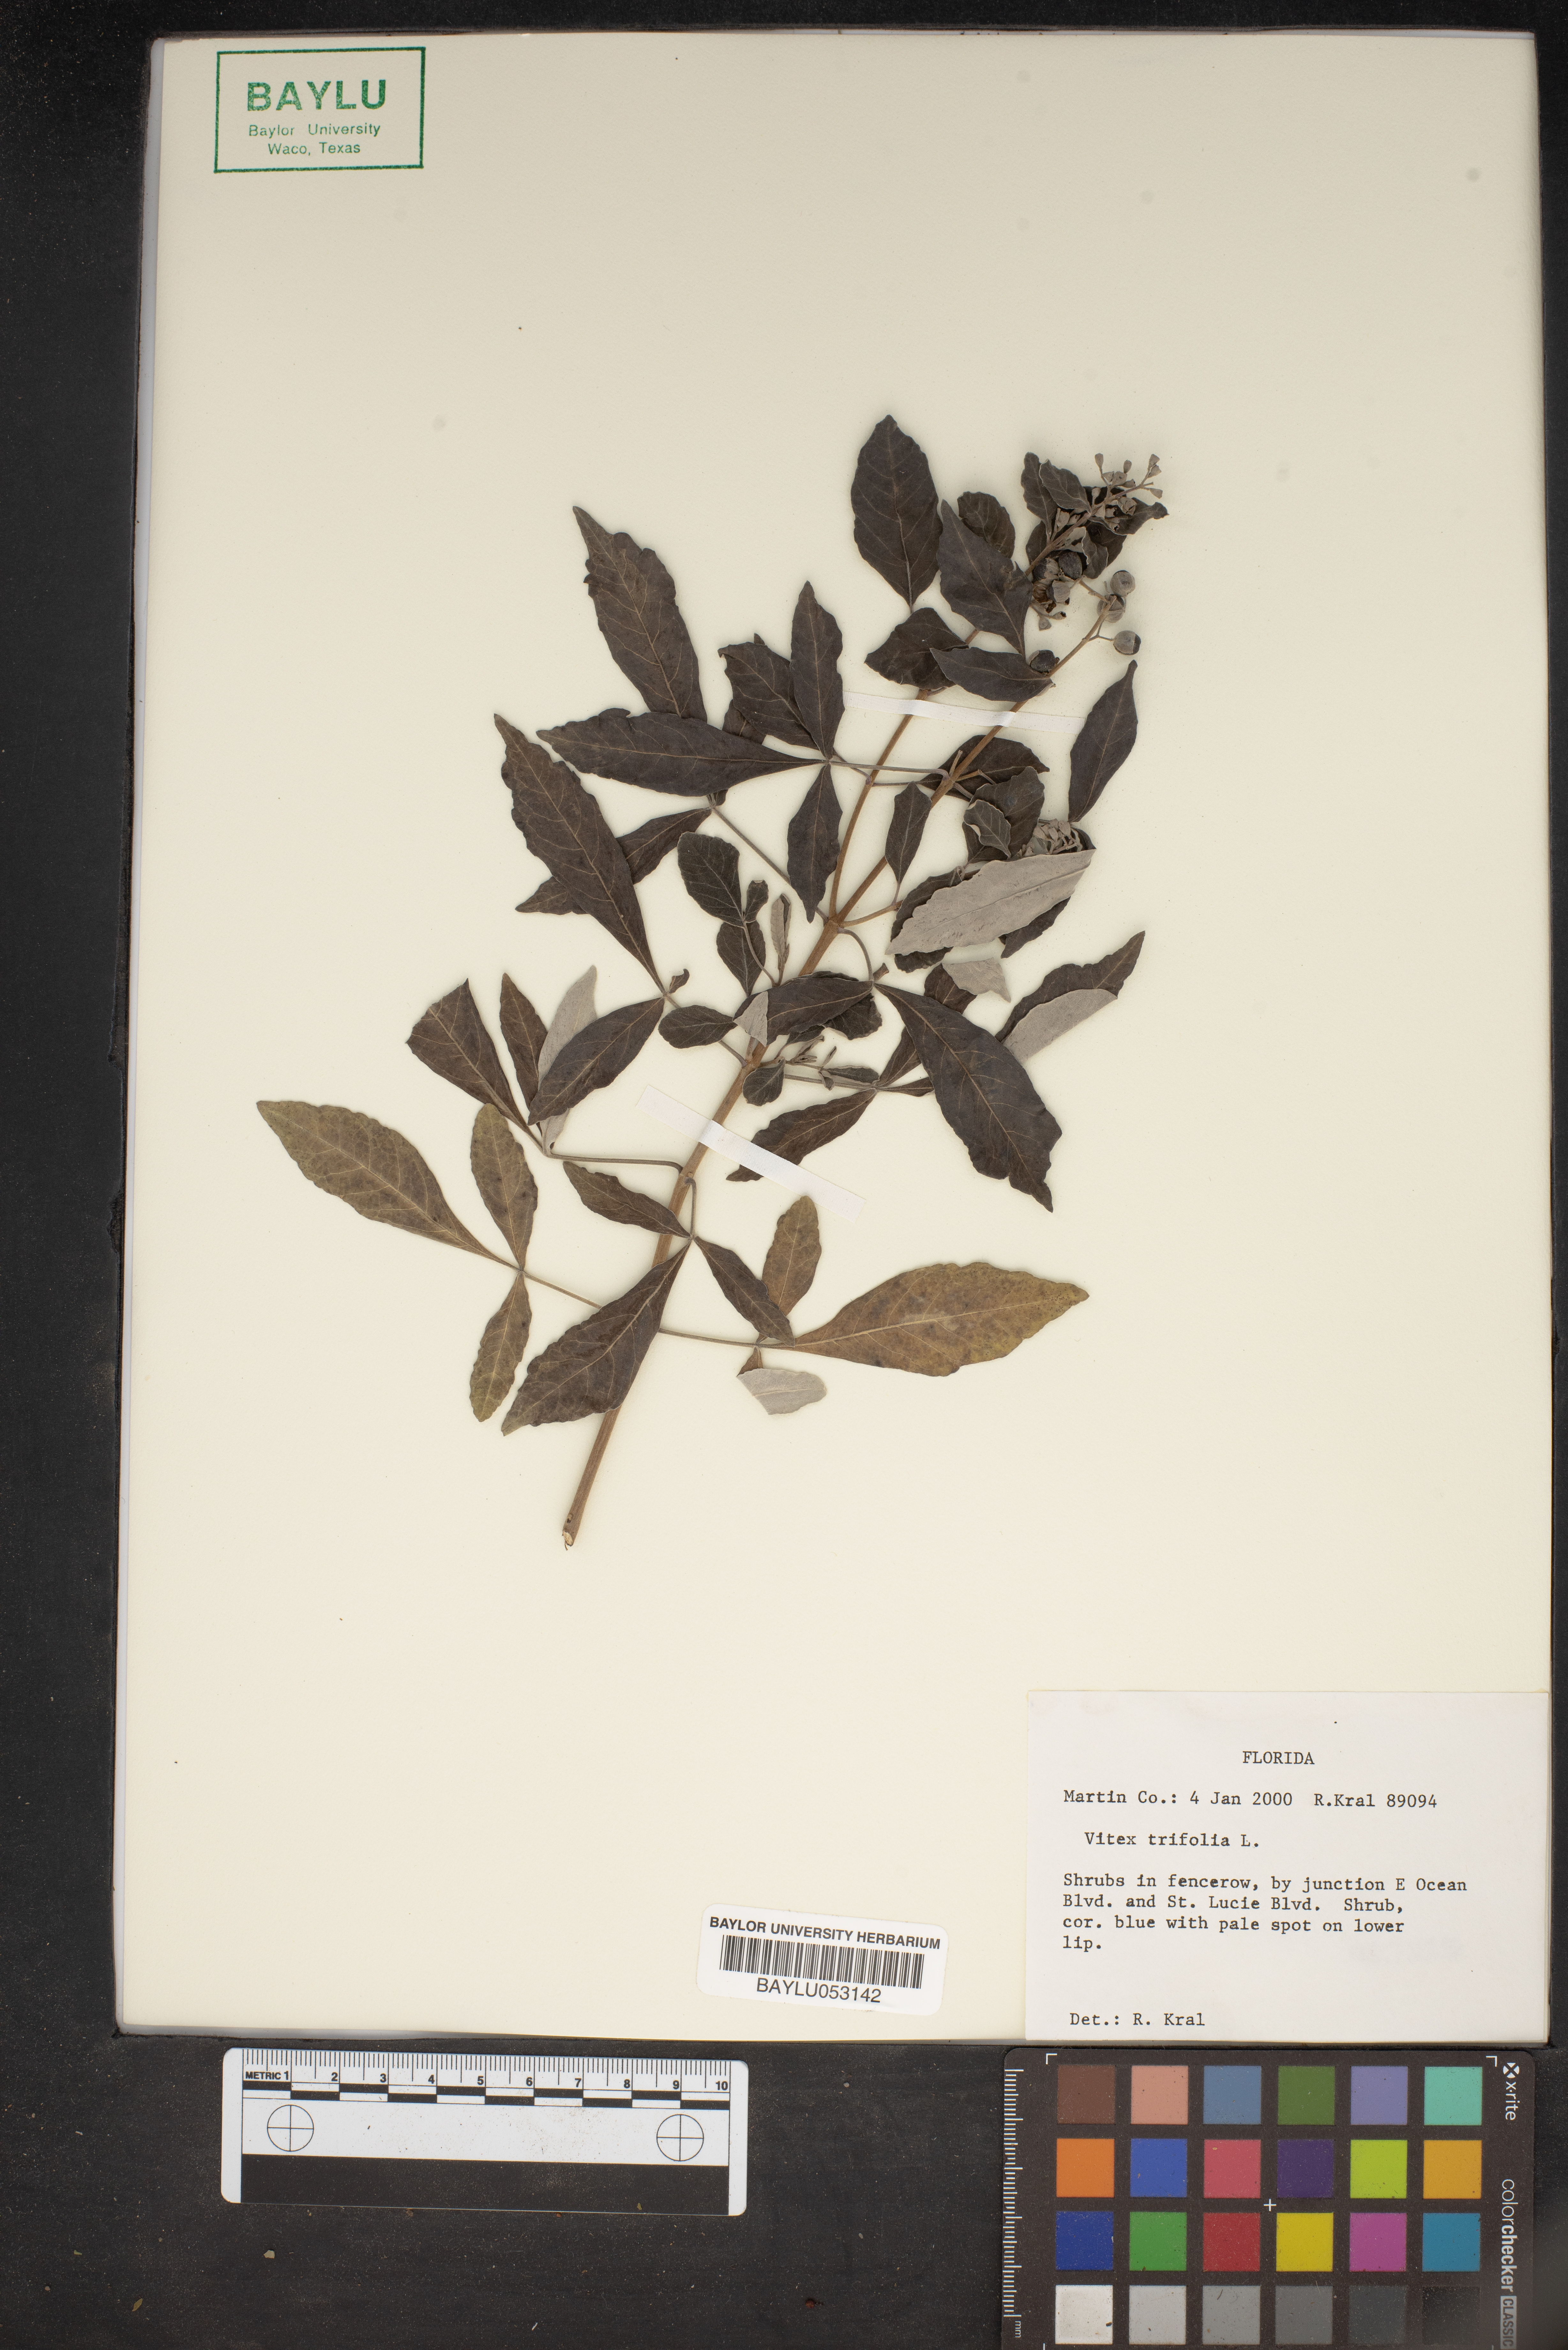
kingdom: Plantae
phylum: Tracheophyta
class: Magnoliopsida
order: Lamiales
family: Lamiaceae
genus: Vitex
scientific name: Vitex trifolia
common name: Simpleleaf chastetree
